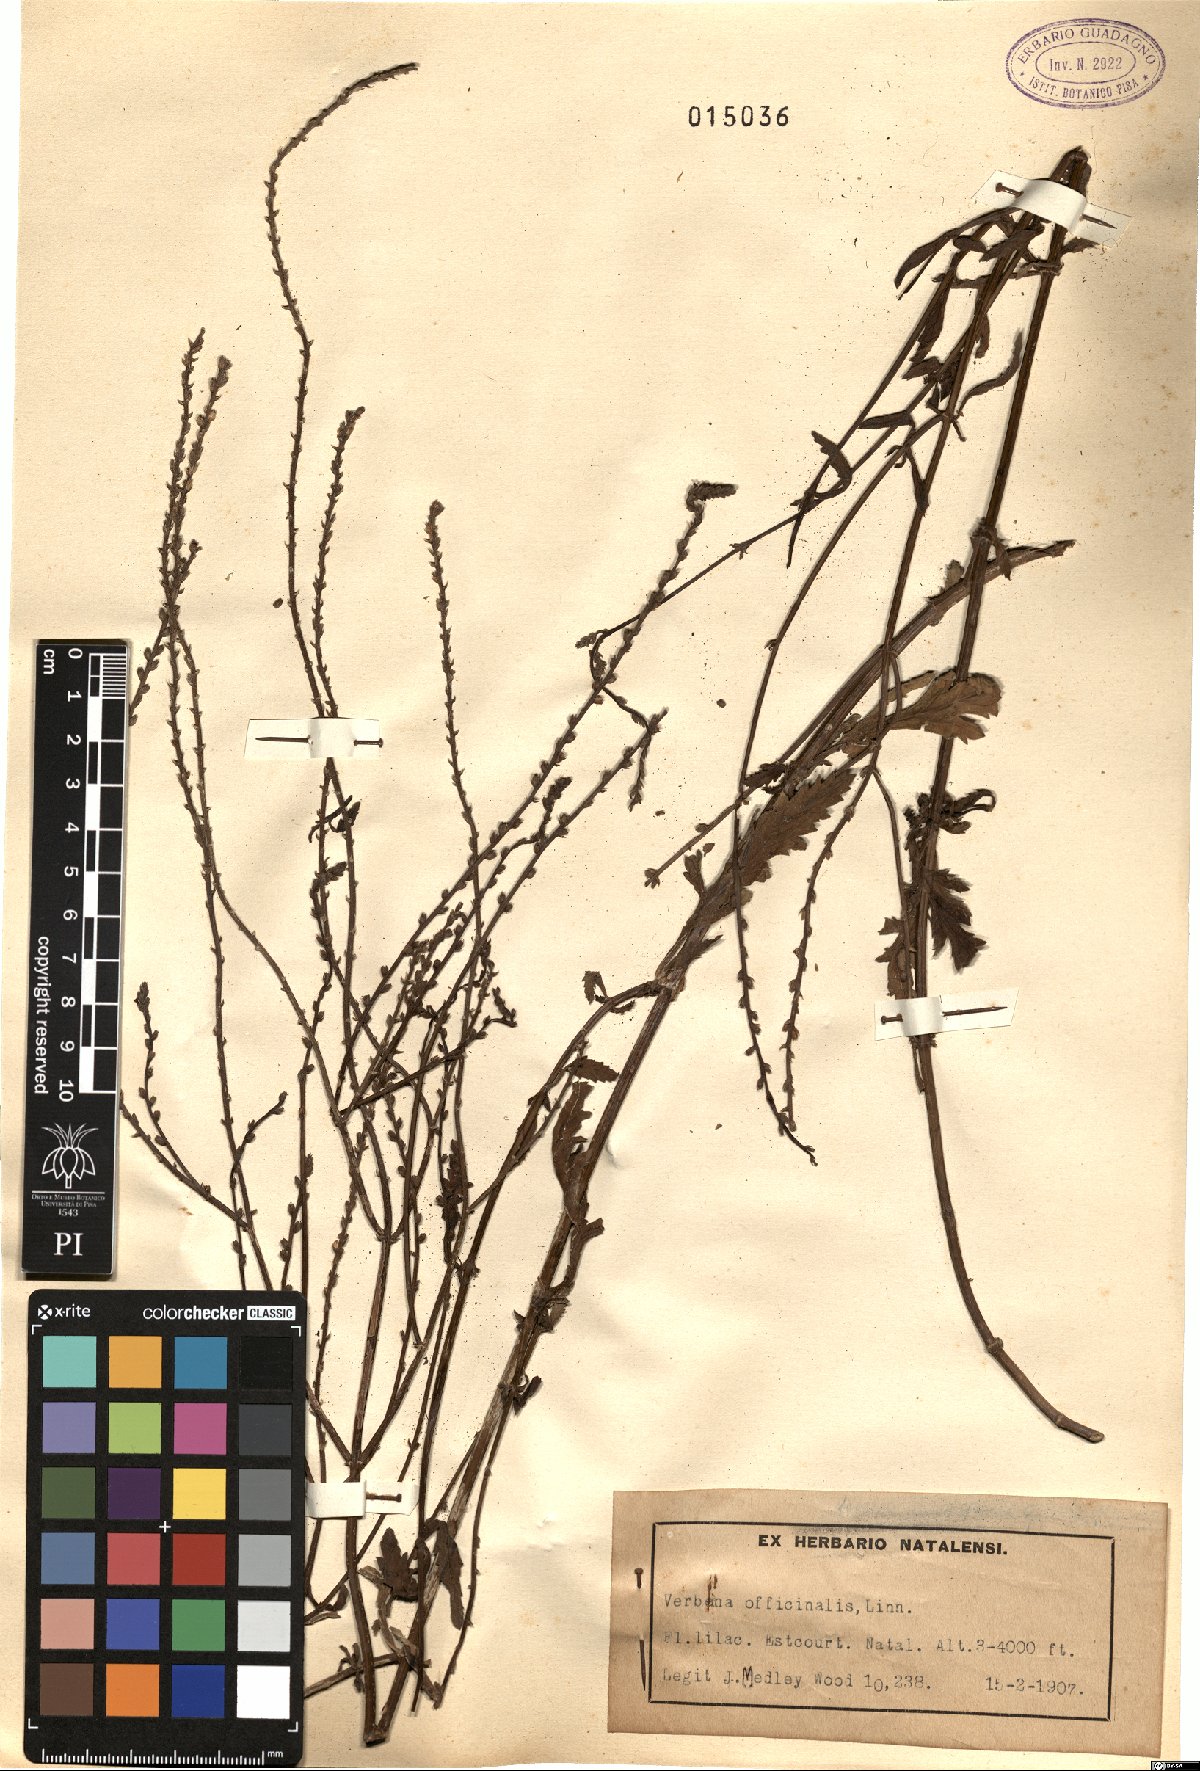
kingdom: Plantae
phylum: Tracheophyta
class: Magnoliopsida
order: Lamiales
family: Verbenaceae
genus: Verbena
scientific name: Verbena officinalis
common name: Vervain
